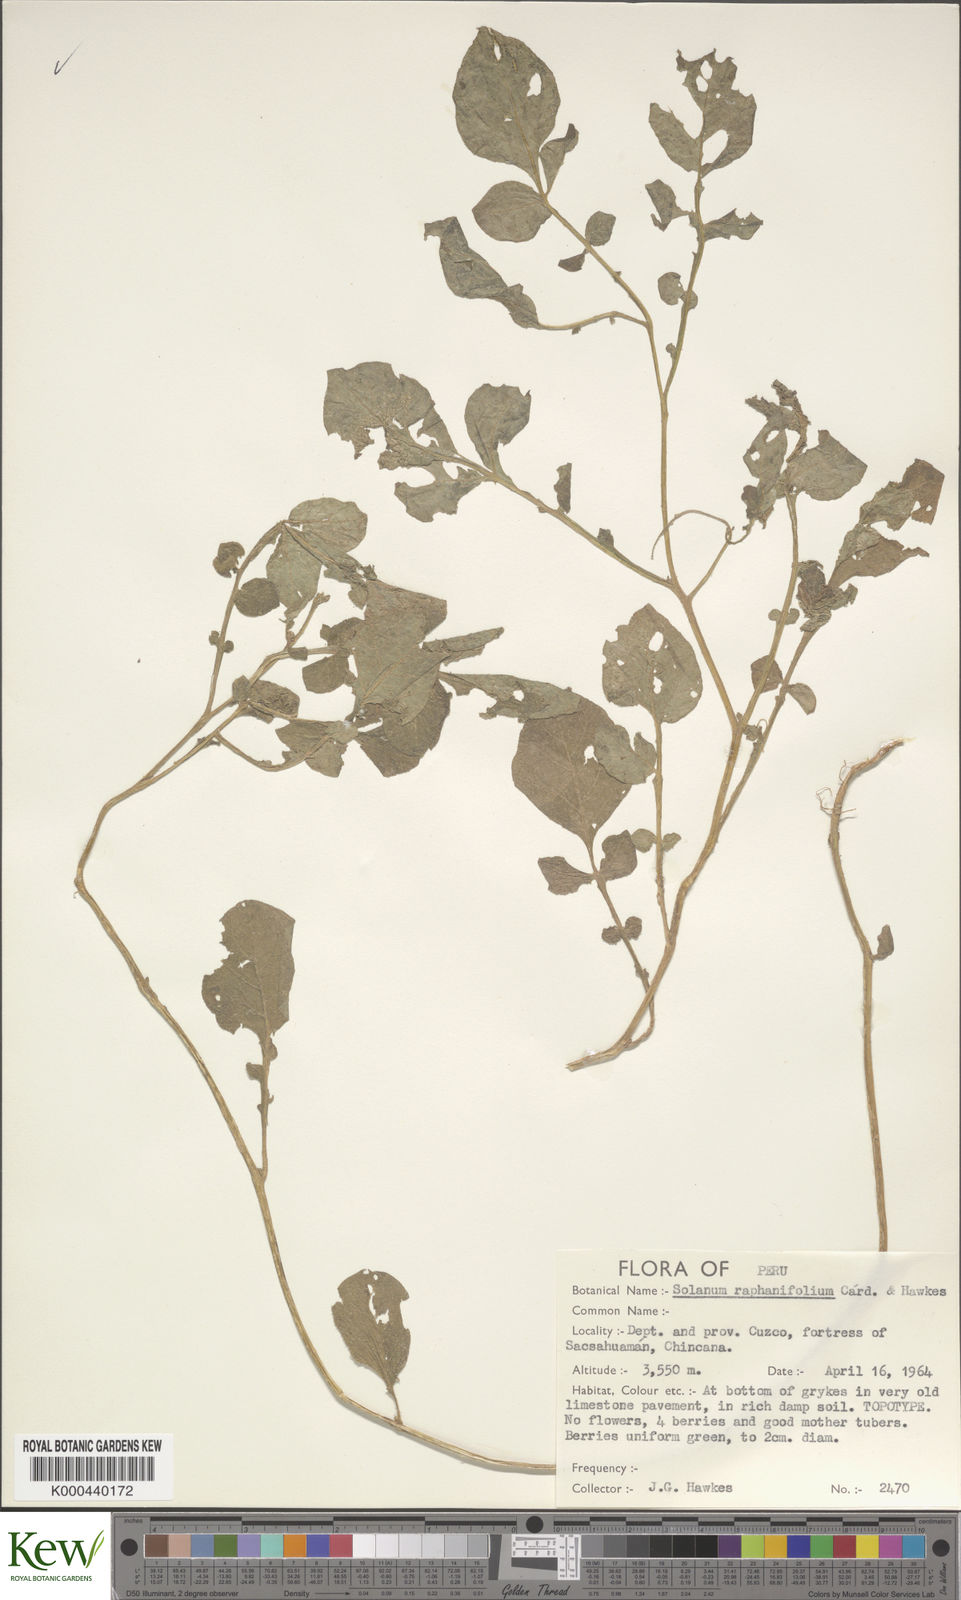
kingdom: Plantae
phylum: Tracheophyta
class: Magnoliopsida
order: Solanales
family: Solanaceae
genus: Solanum
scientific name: Solanum raphanifolium
